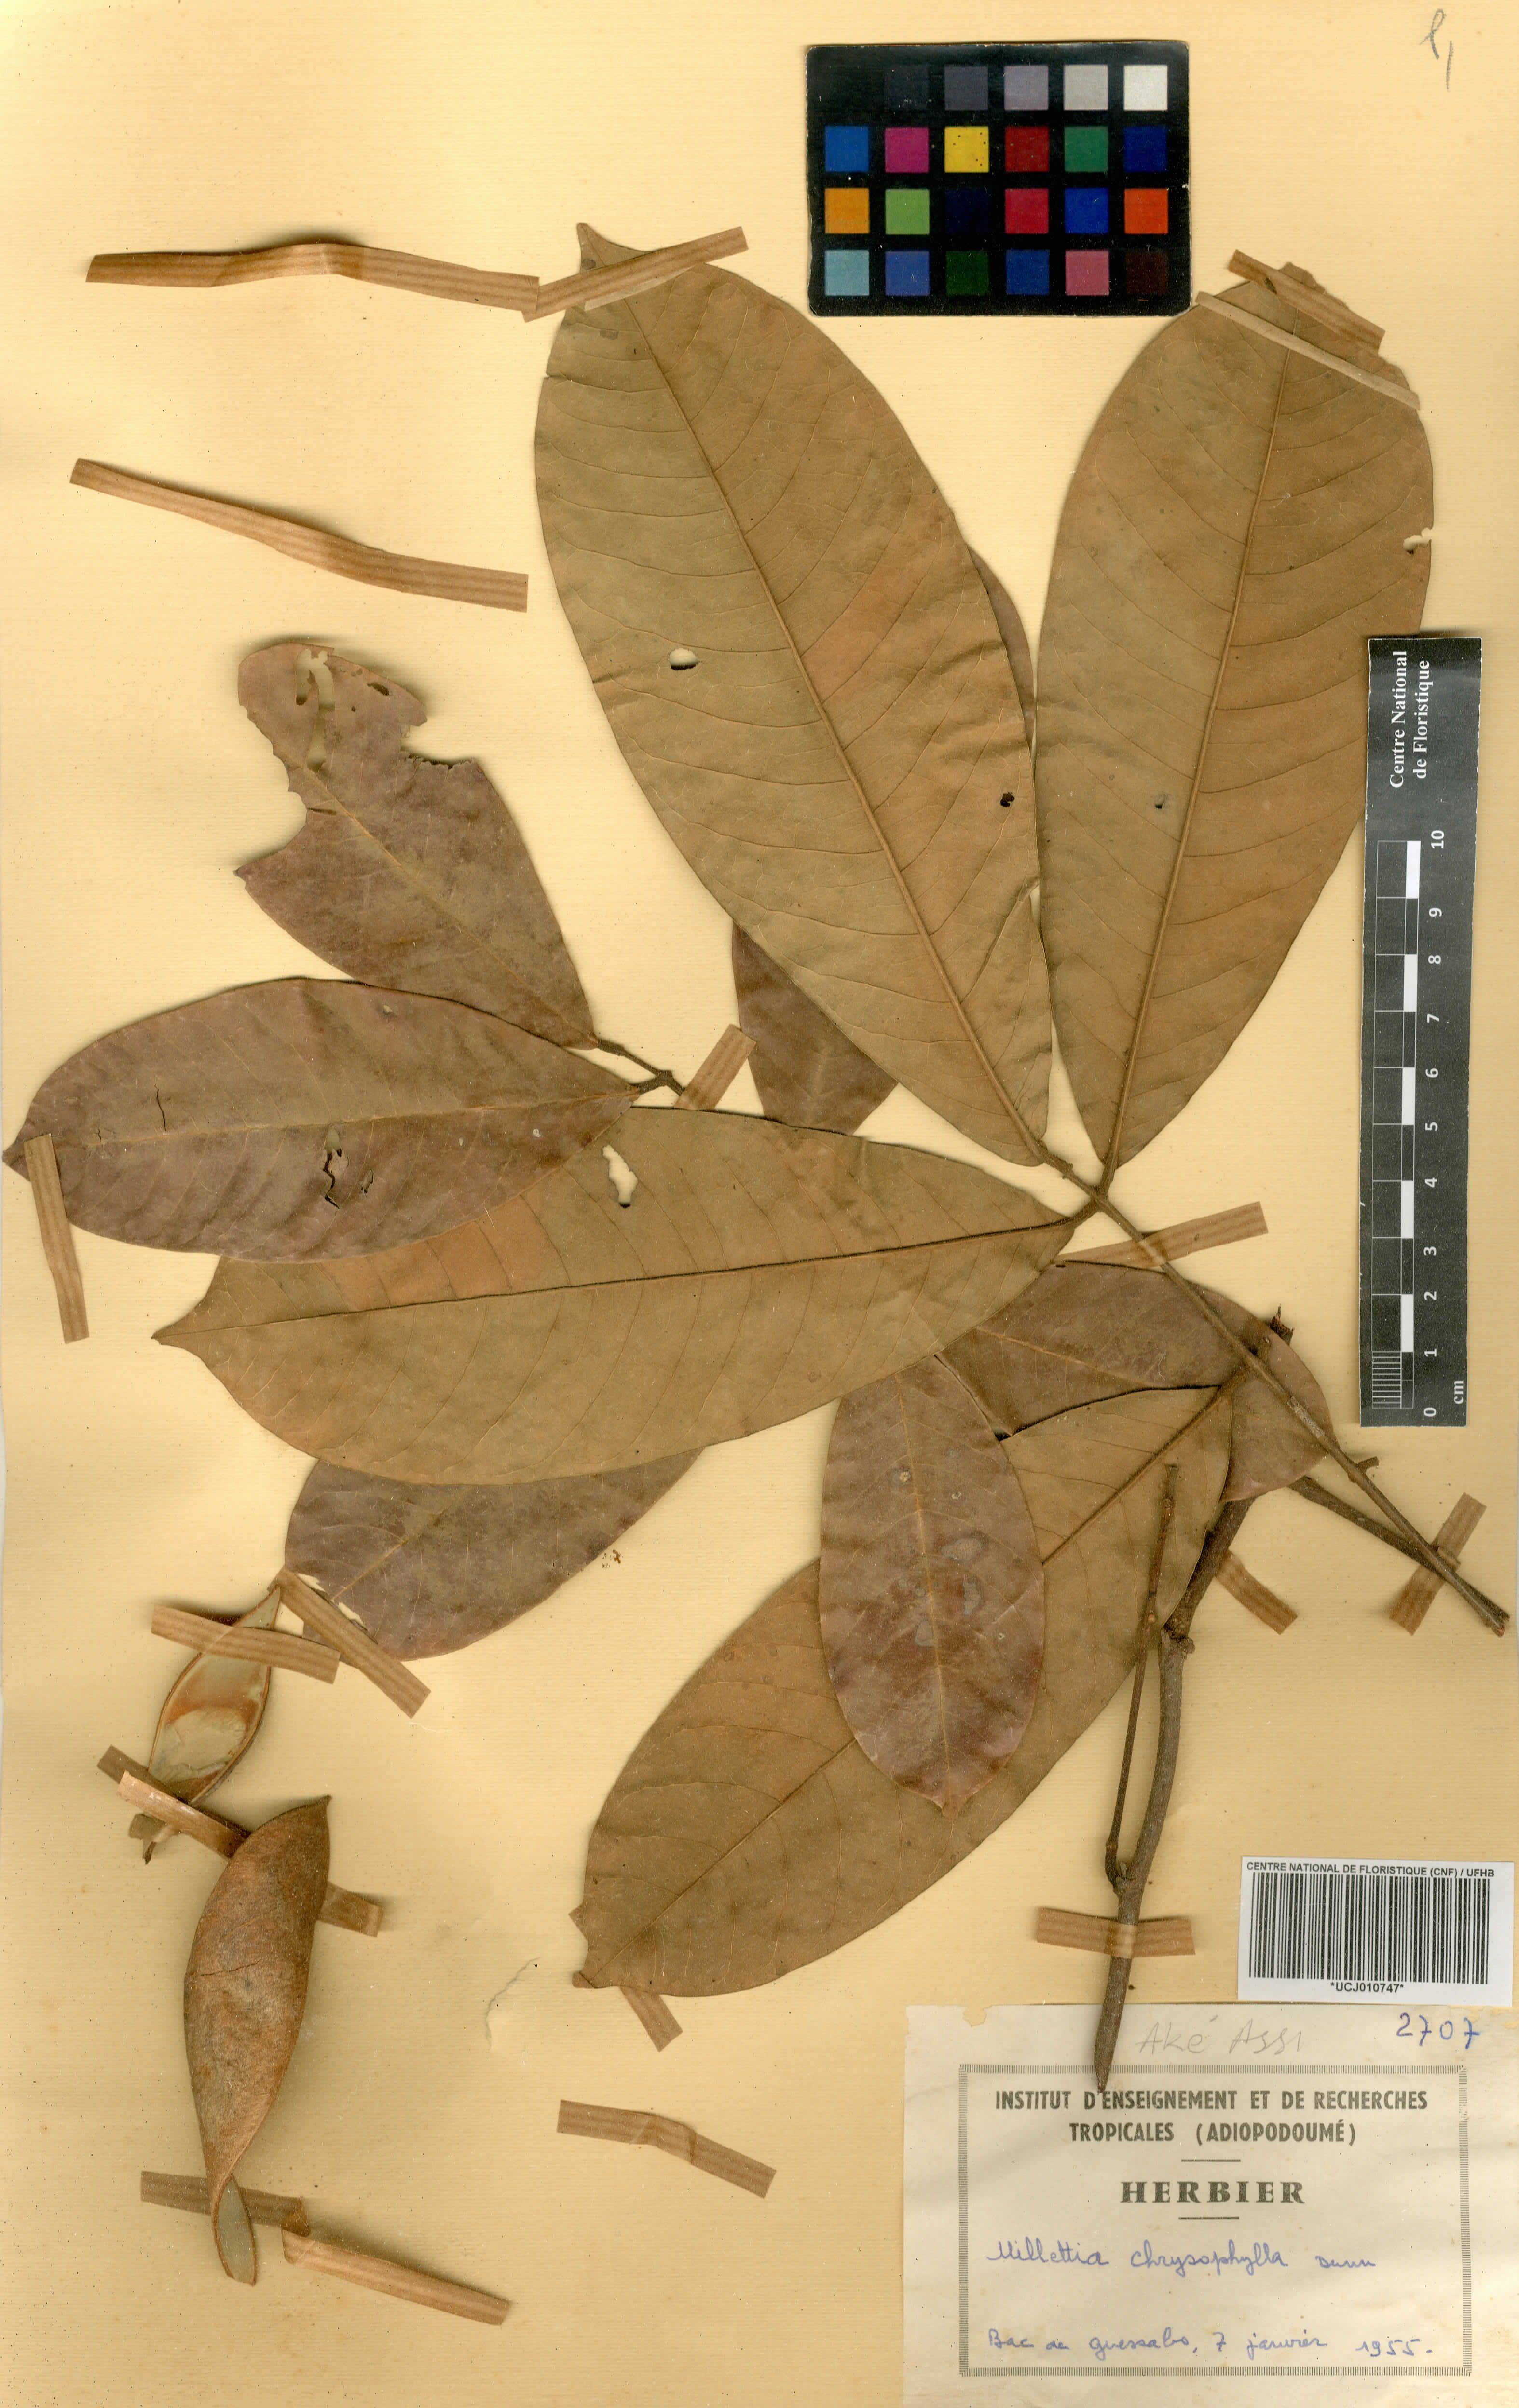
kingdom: Plantae
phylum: Tracheophyta
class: Magnoliopsida
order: Fabales
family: Fabaceae
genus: Millettia
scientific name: Millettia chrysophylla
